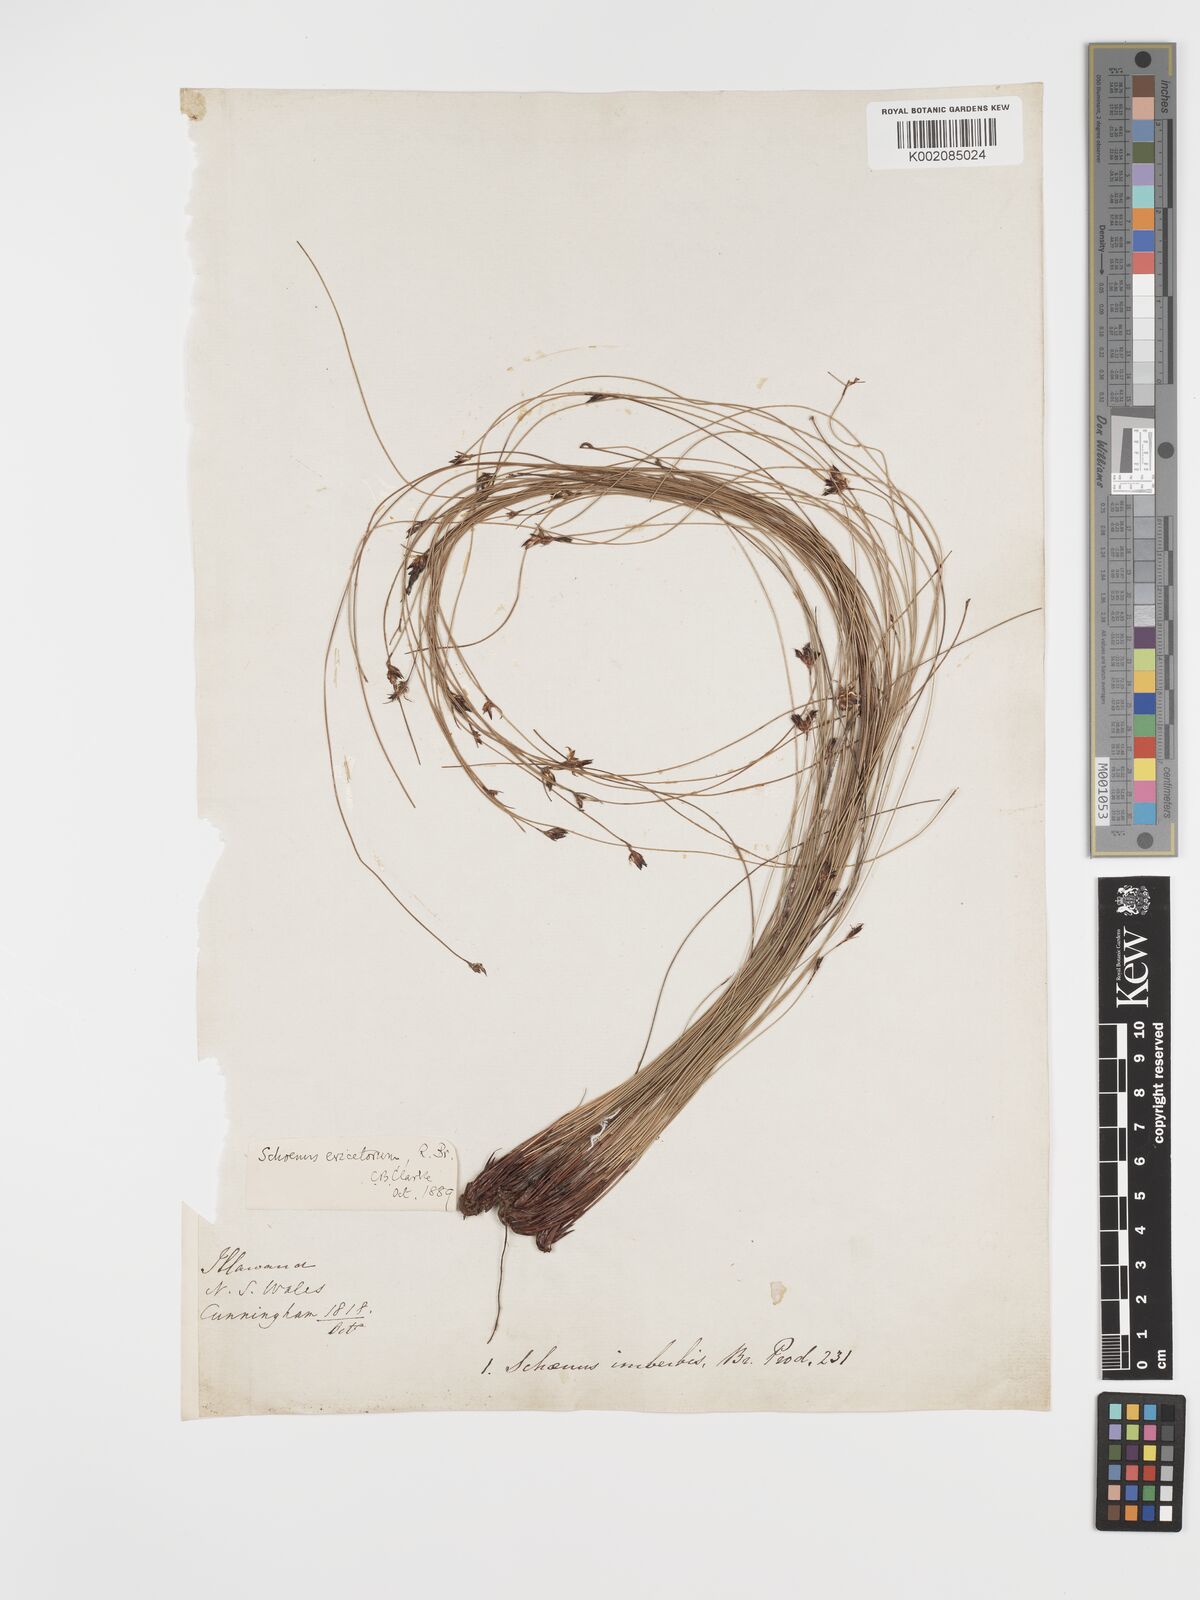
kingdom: Plantae
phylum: Tracheophyta
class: Liliopsida
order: Poales
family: Cyperaceae
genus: Schoenus
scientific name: Schoenus ericetorum
